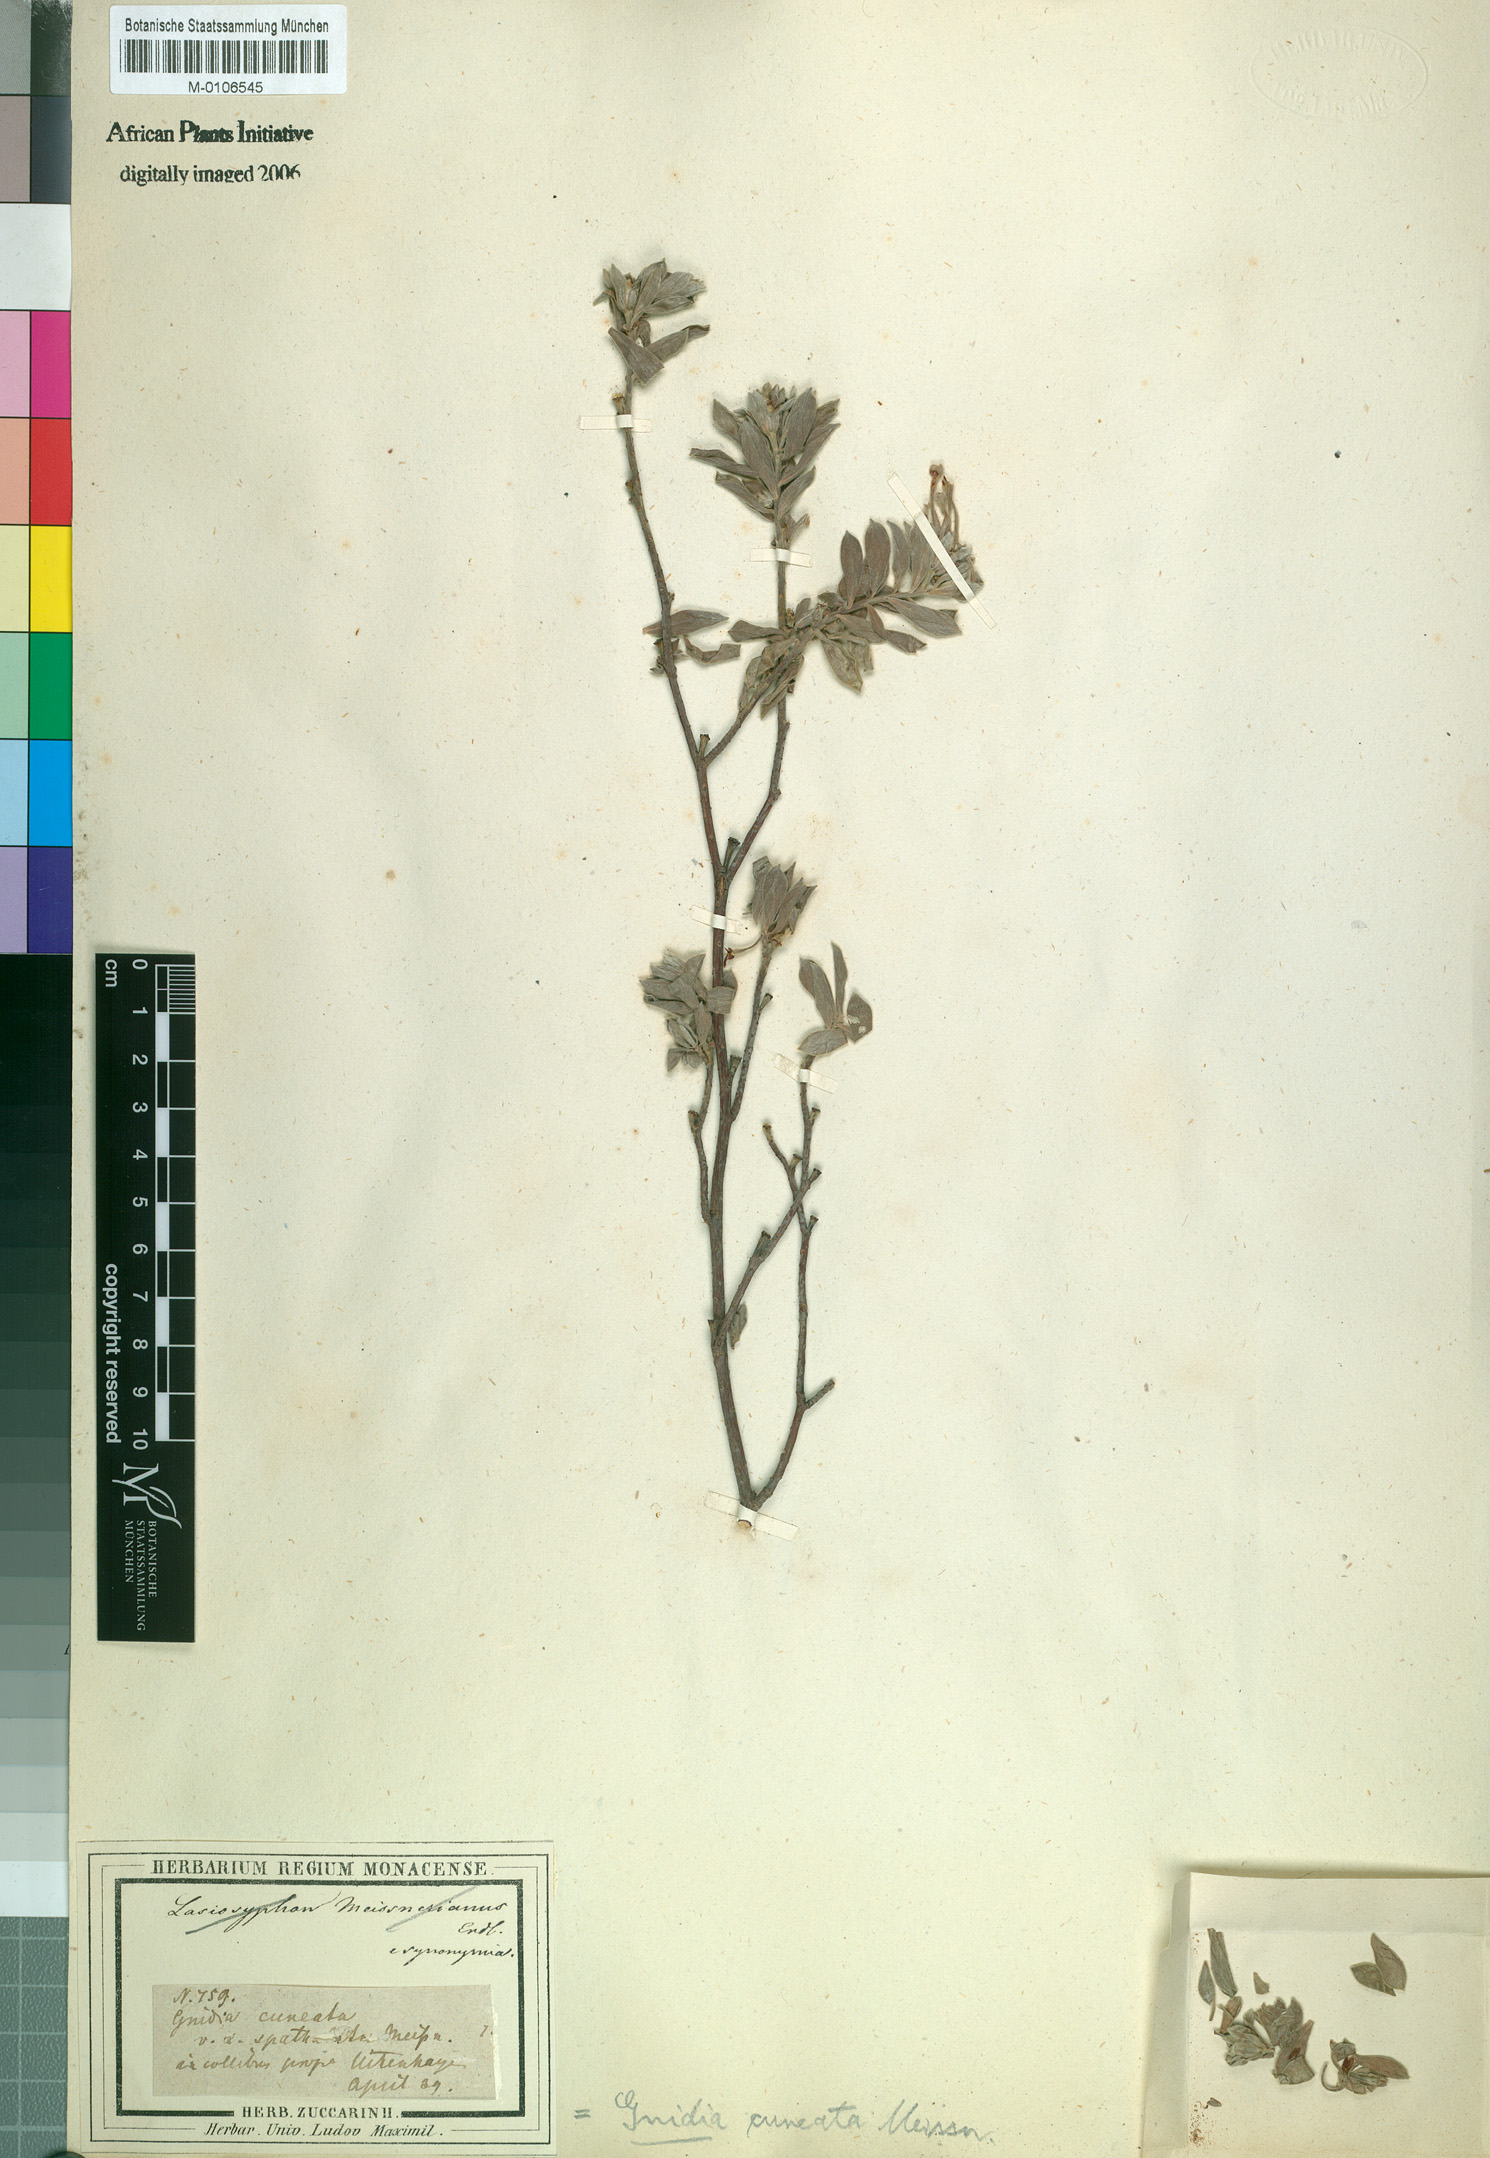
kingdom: Plantae
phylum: Tracheophyta
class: Magnoliopsida
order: Malvales
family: Thymelaeaceae
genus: Gnidia
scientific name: Gnidia cuneata
